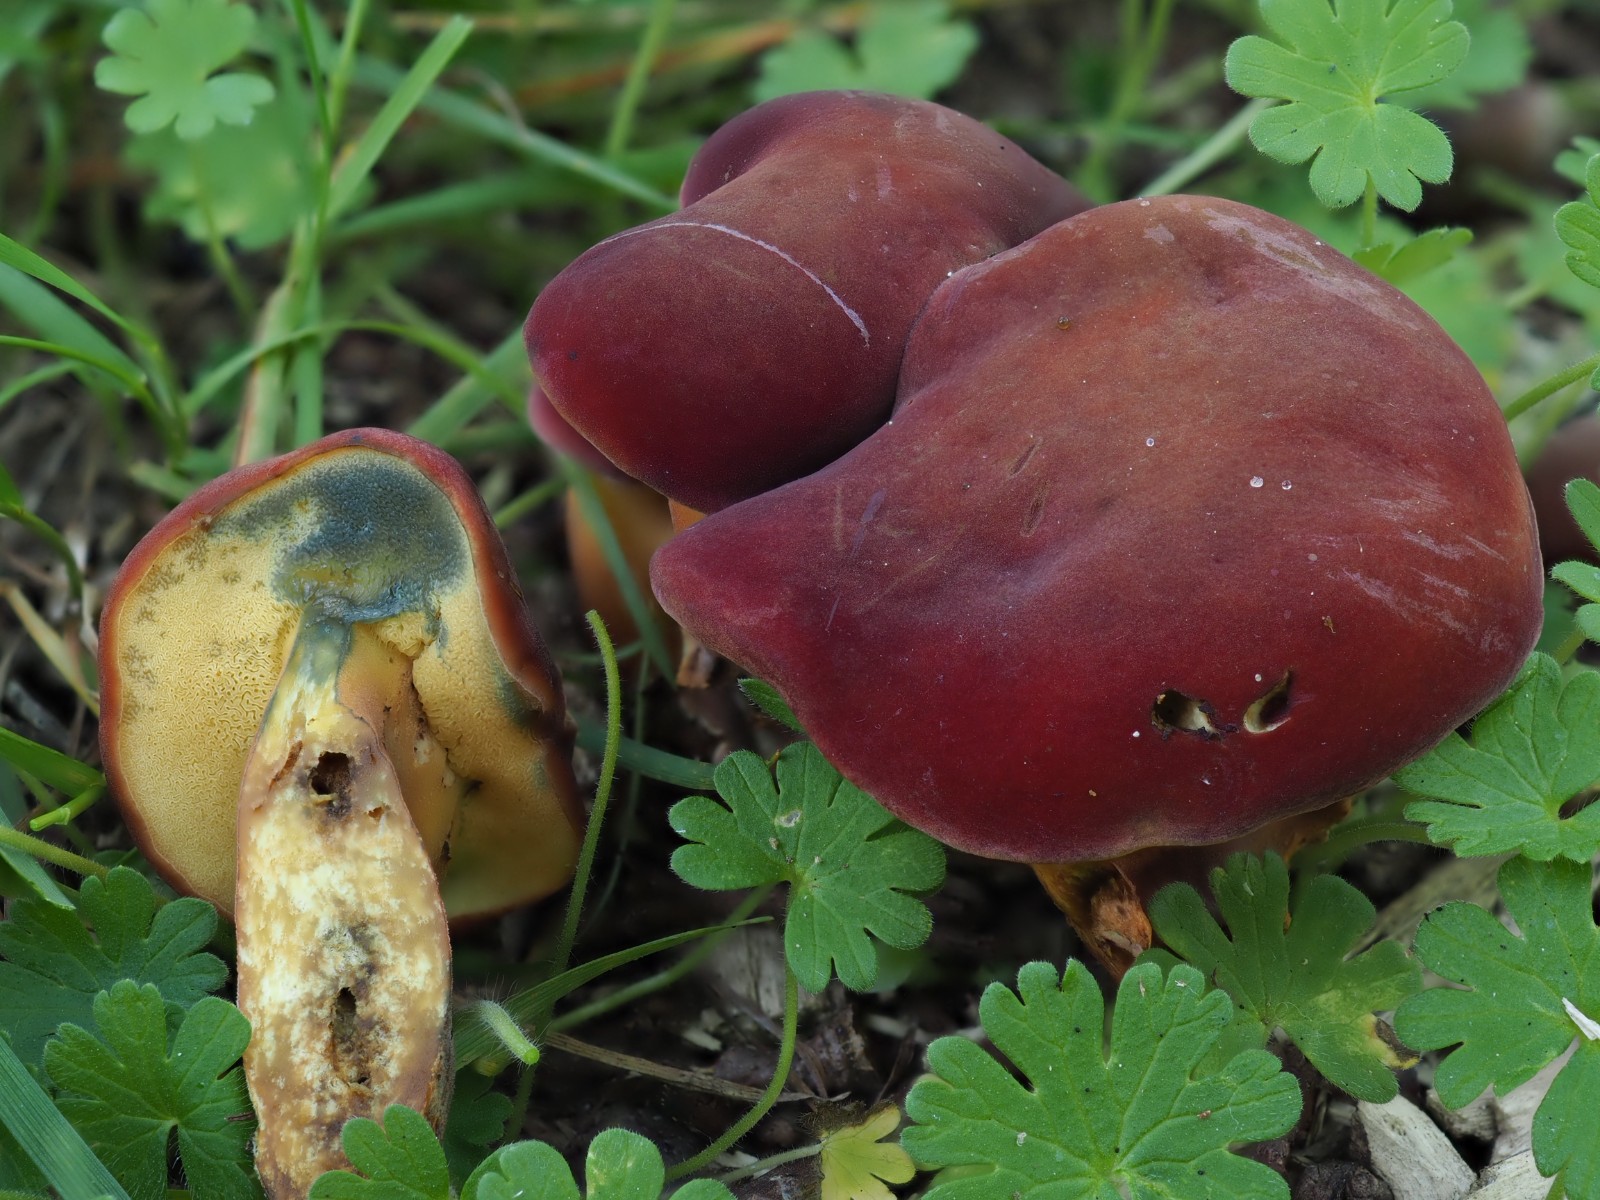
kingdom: Fungi
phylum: Basidiomycota
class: Agaricomycetes
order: Boletales
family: Boletaceae
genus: Hortiboletus
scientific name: Hortiboletus rubellus
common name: blodrød rørhat
